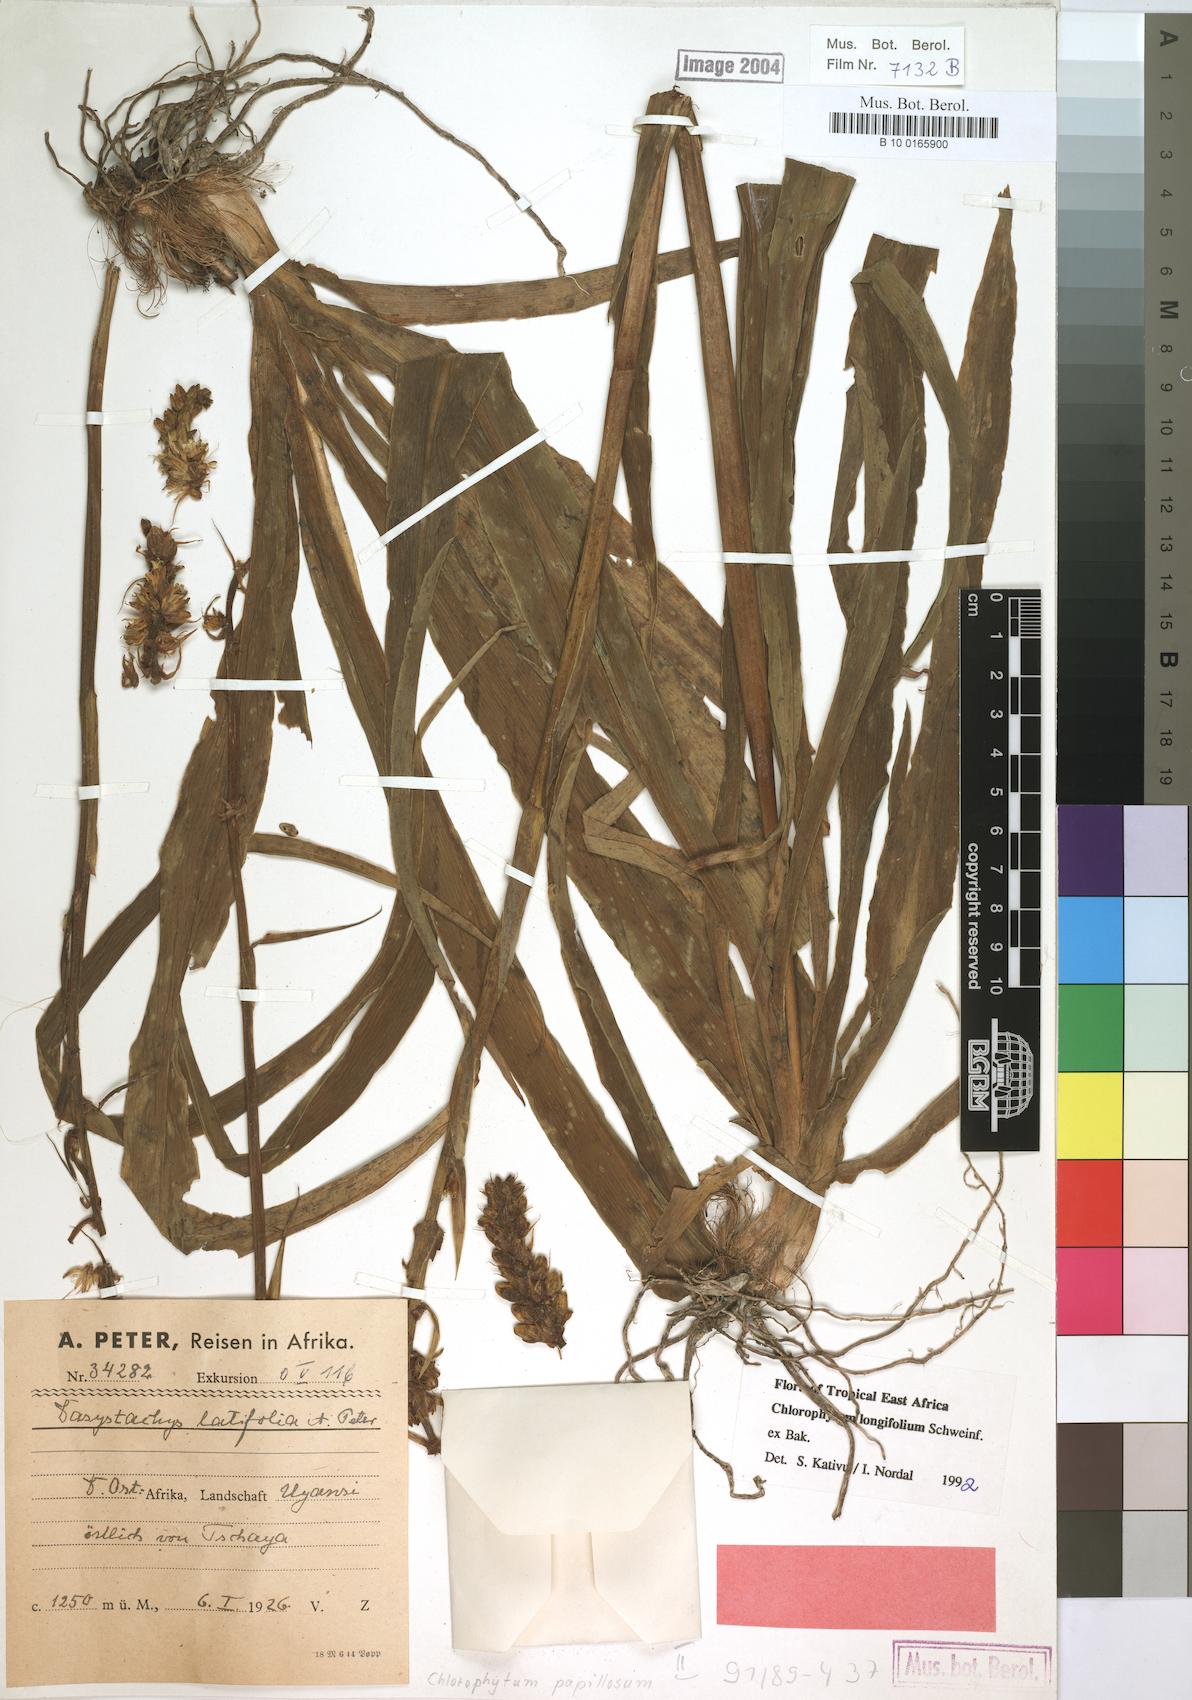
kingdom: Plantae
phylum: Tracheophyta
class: Liliopsida
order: Asparagales
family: Asparagaceae
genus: Chlorophytum
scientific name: Chlorophytum longifolium
